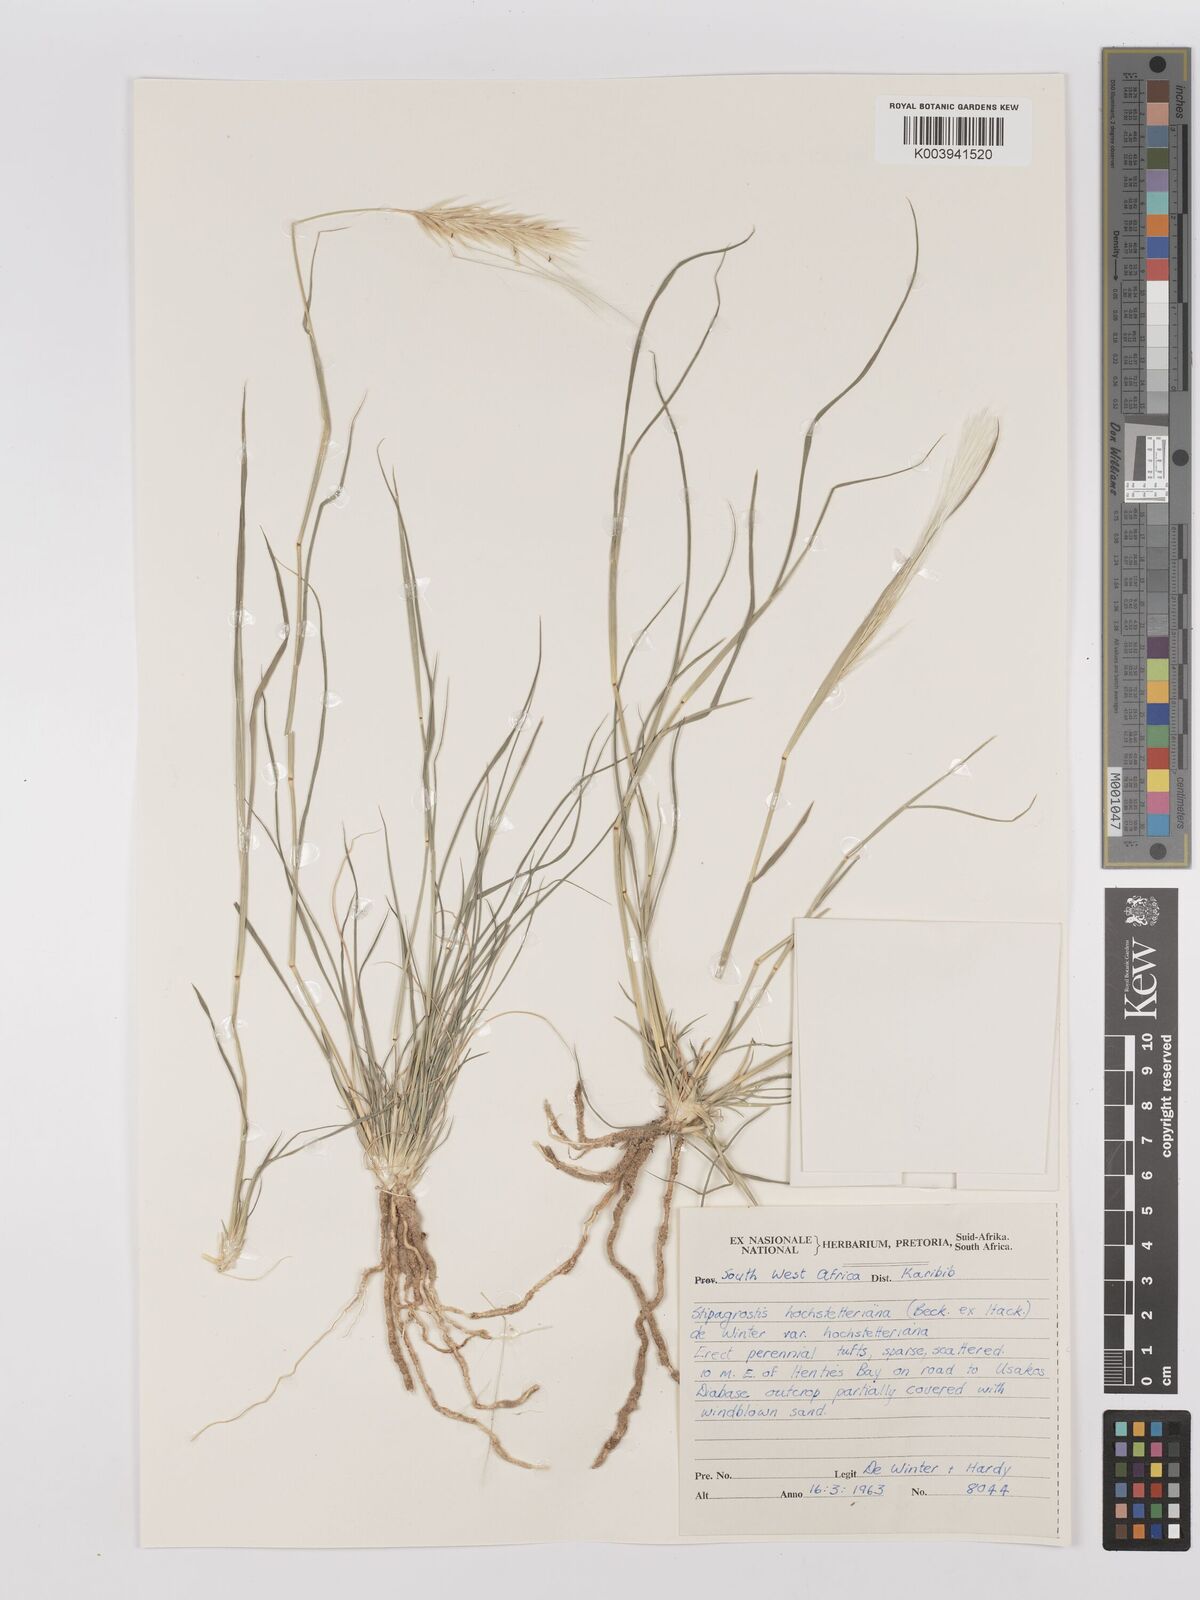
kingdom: Plantae
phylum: Tracheophyta
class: Liliopsida
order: Poales
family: Poaceae
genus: Stipagrostis
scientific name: Stipagrostis hochstetteriana
